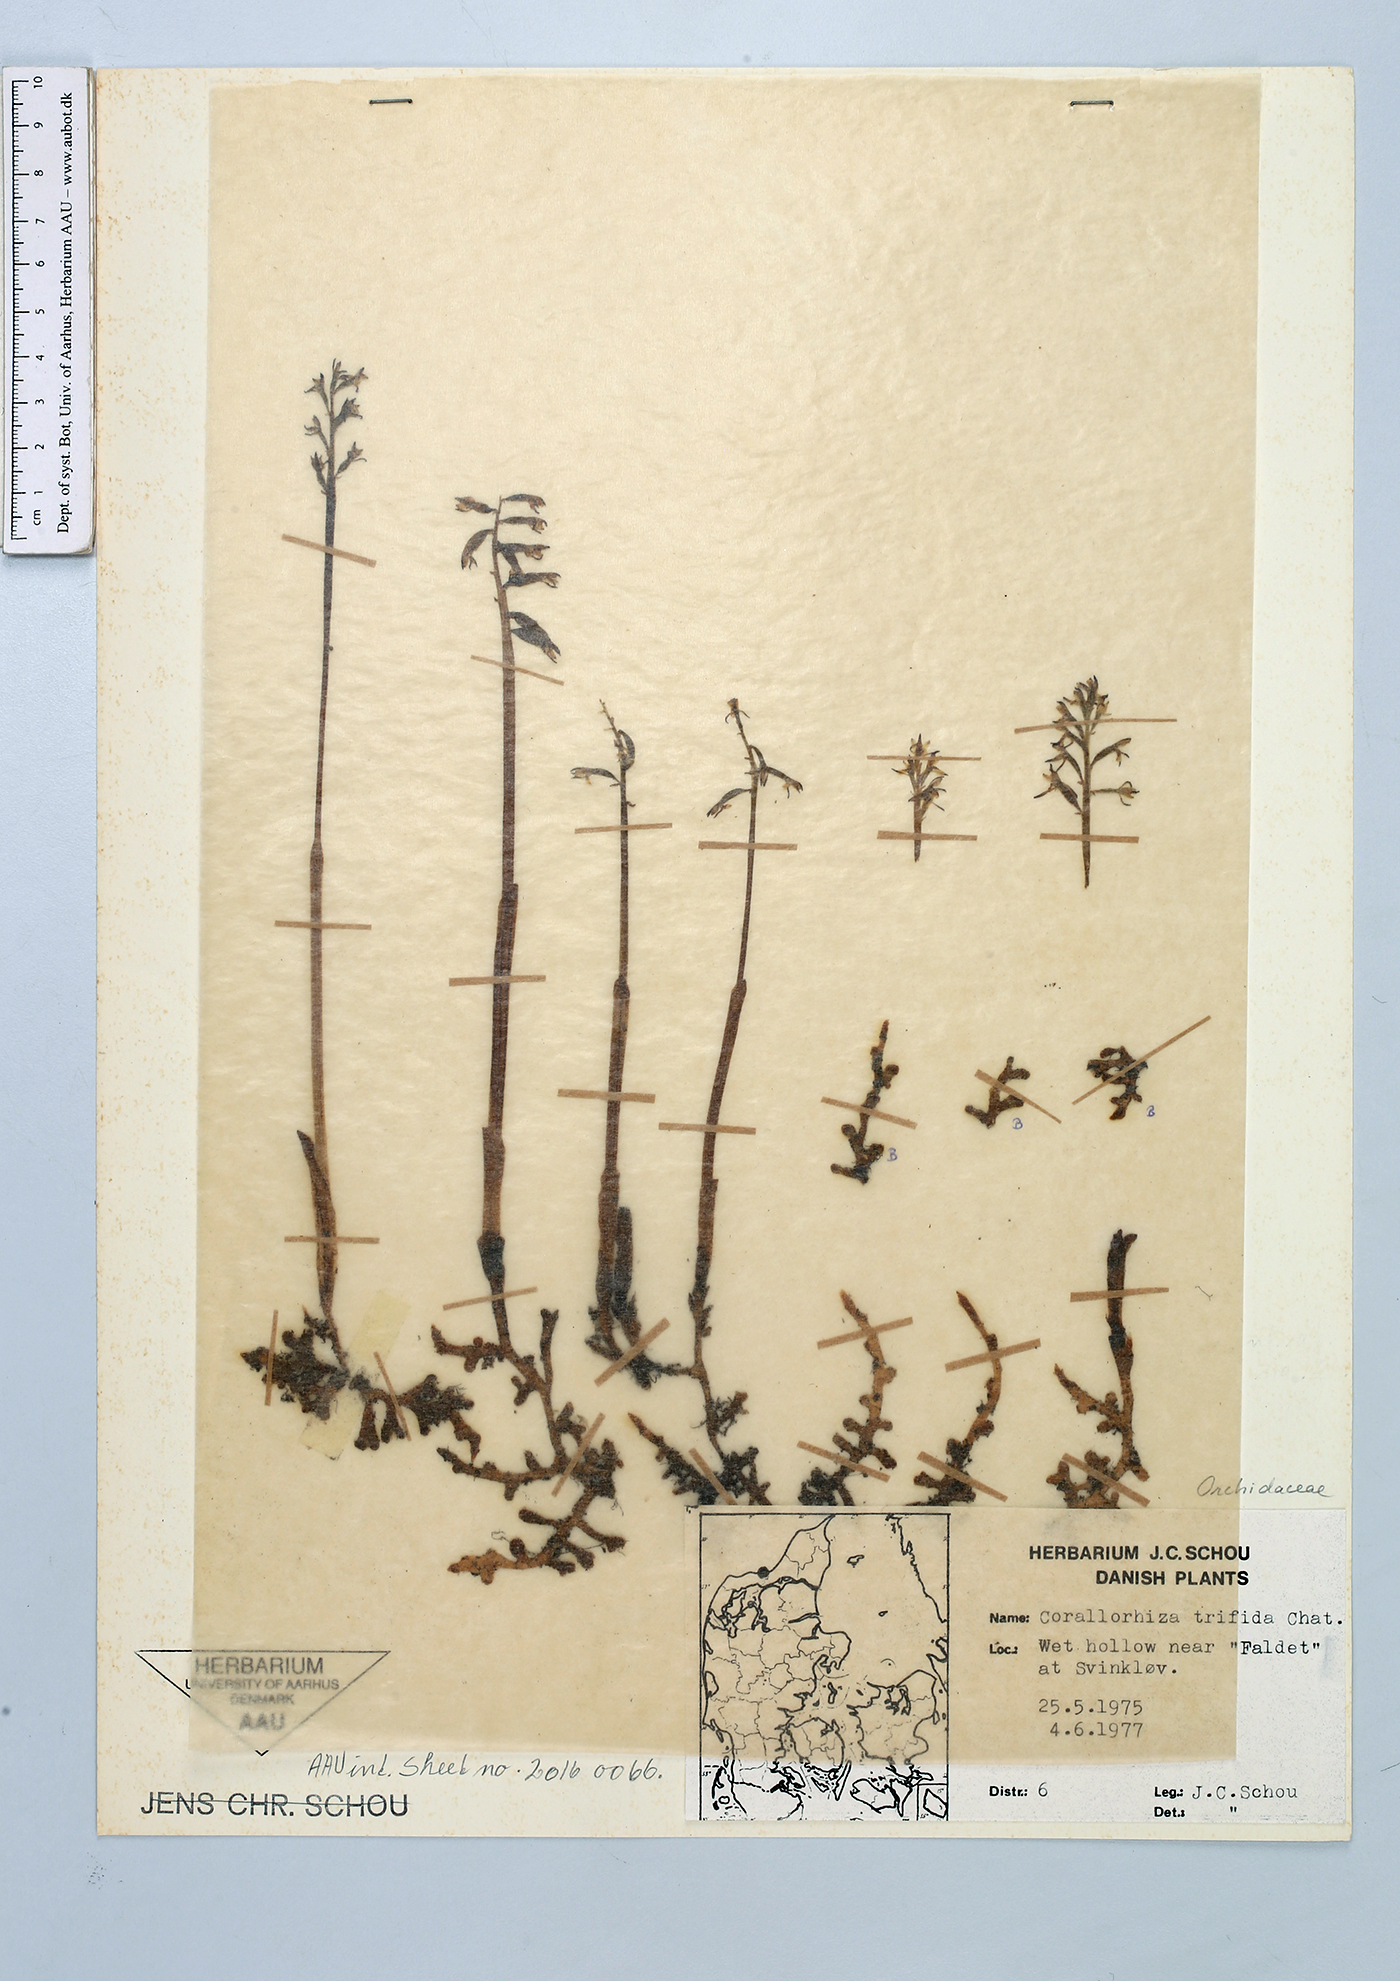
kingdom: Plantae
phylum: Tracheophyta
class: Liliopsida
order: Asparagales
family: Orchidaceae
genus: Corallorhiza
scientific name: Corallorhiza trifida
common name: Yellow coralroot
